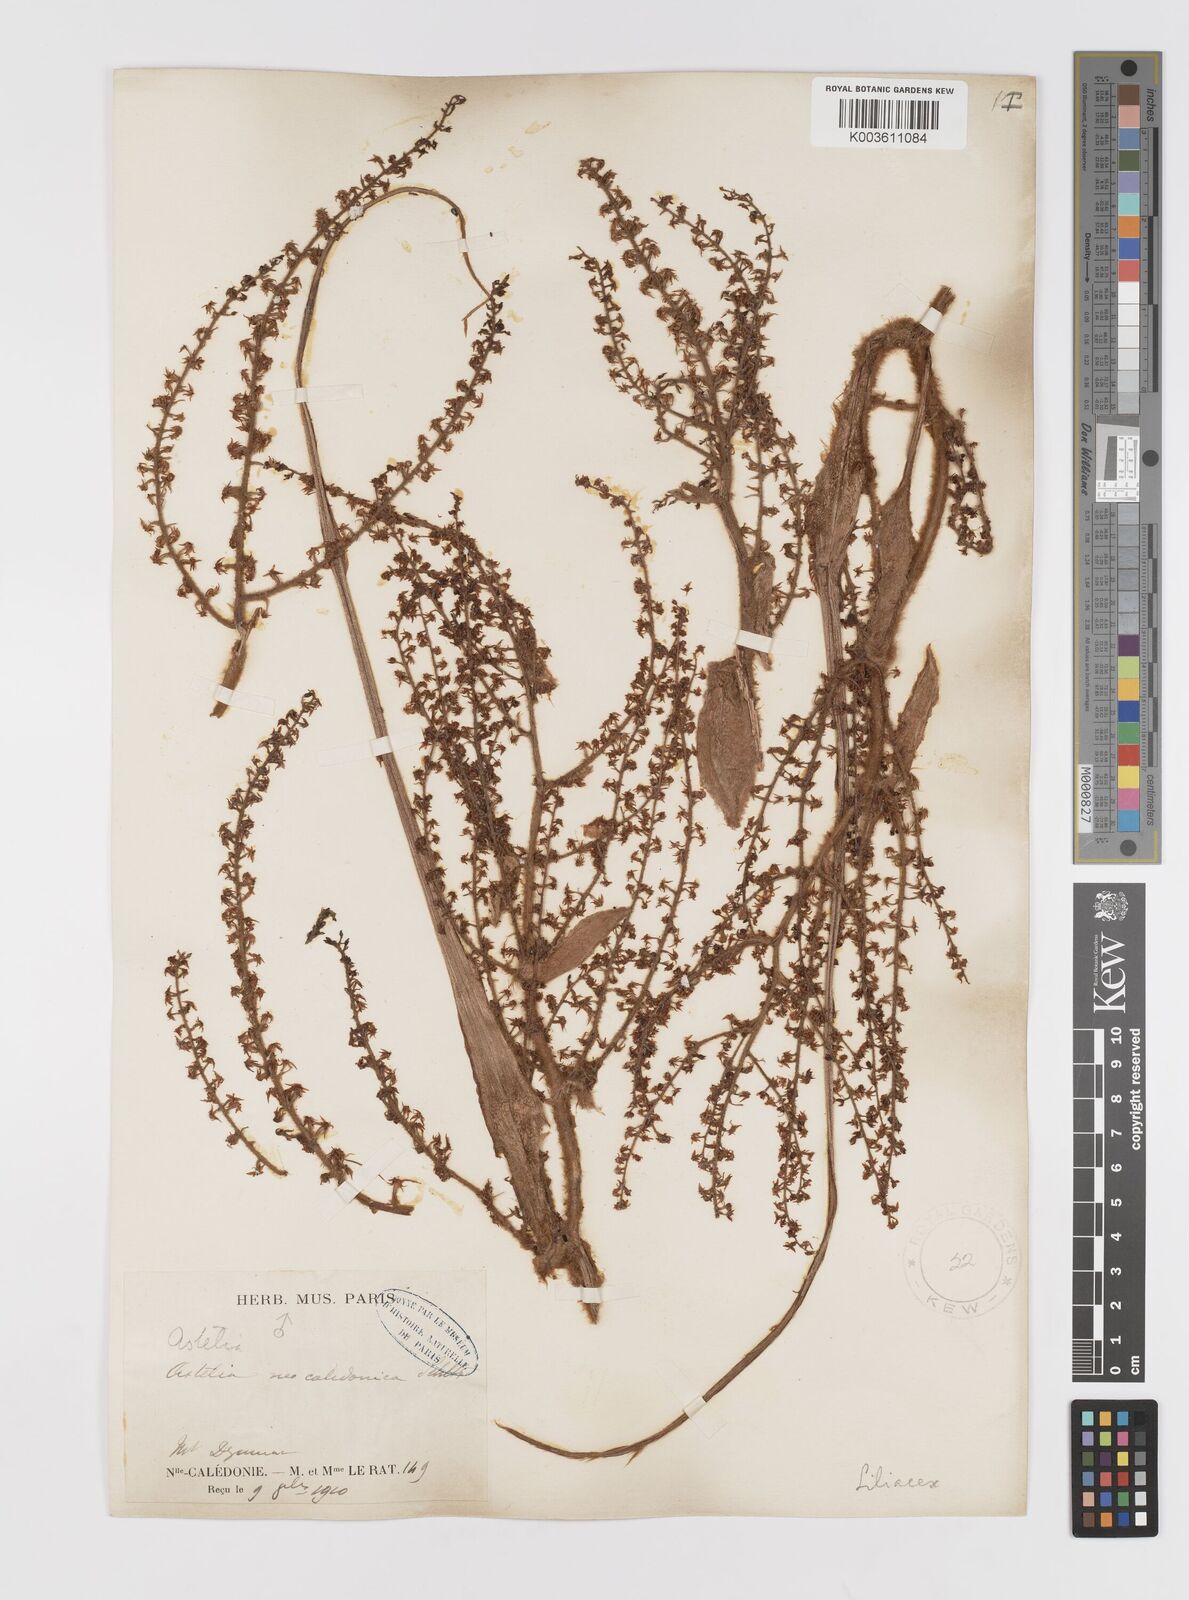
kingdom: Plantae
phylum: Tracheophyta
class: Liliopsida
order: Asparagales
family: Asteliaceae
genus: Astelia
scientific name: Astelia neocaledonica
